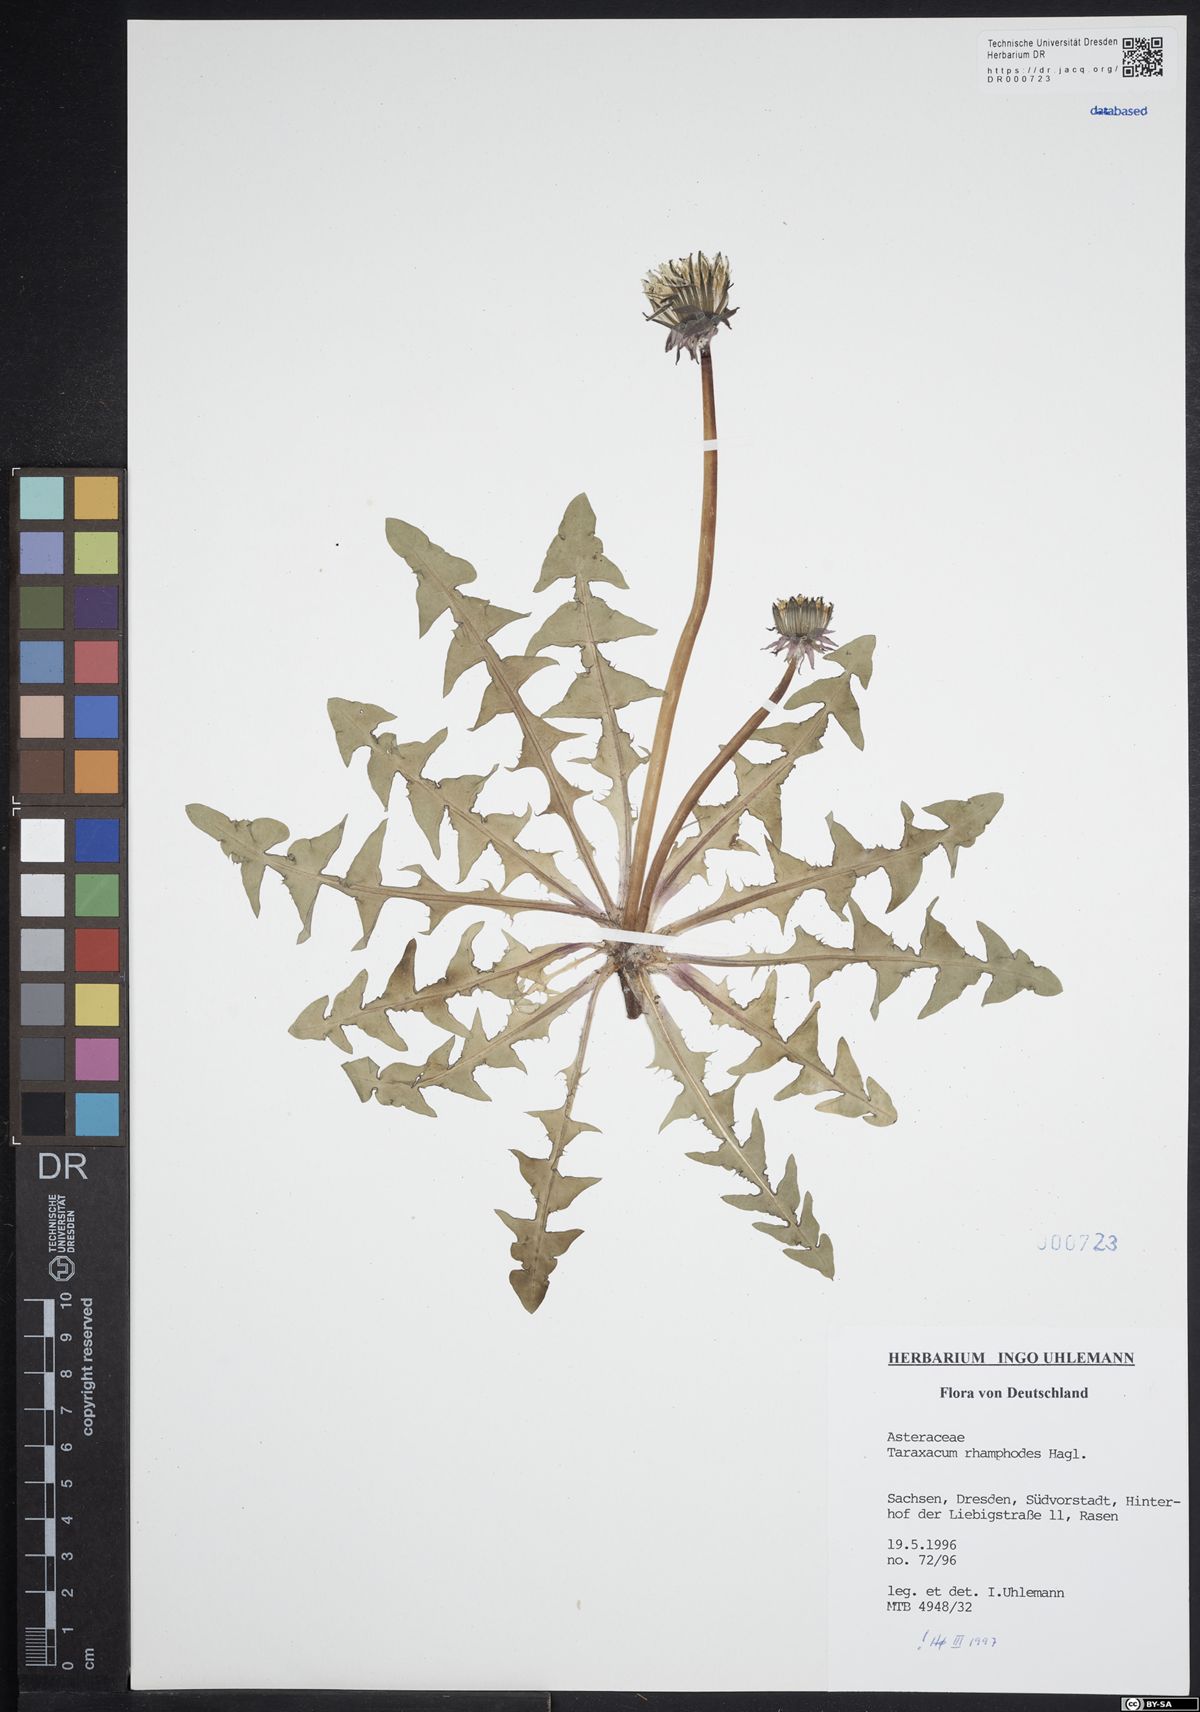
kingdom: Plantae
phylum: Tracheophyta
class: Magnoliopsida
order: Asterales
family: Asteraceae
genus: Taraxacum
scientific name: Taraxacum rhamphodes
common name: Robust dandelion
